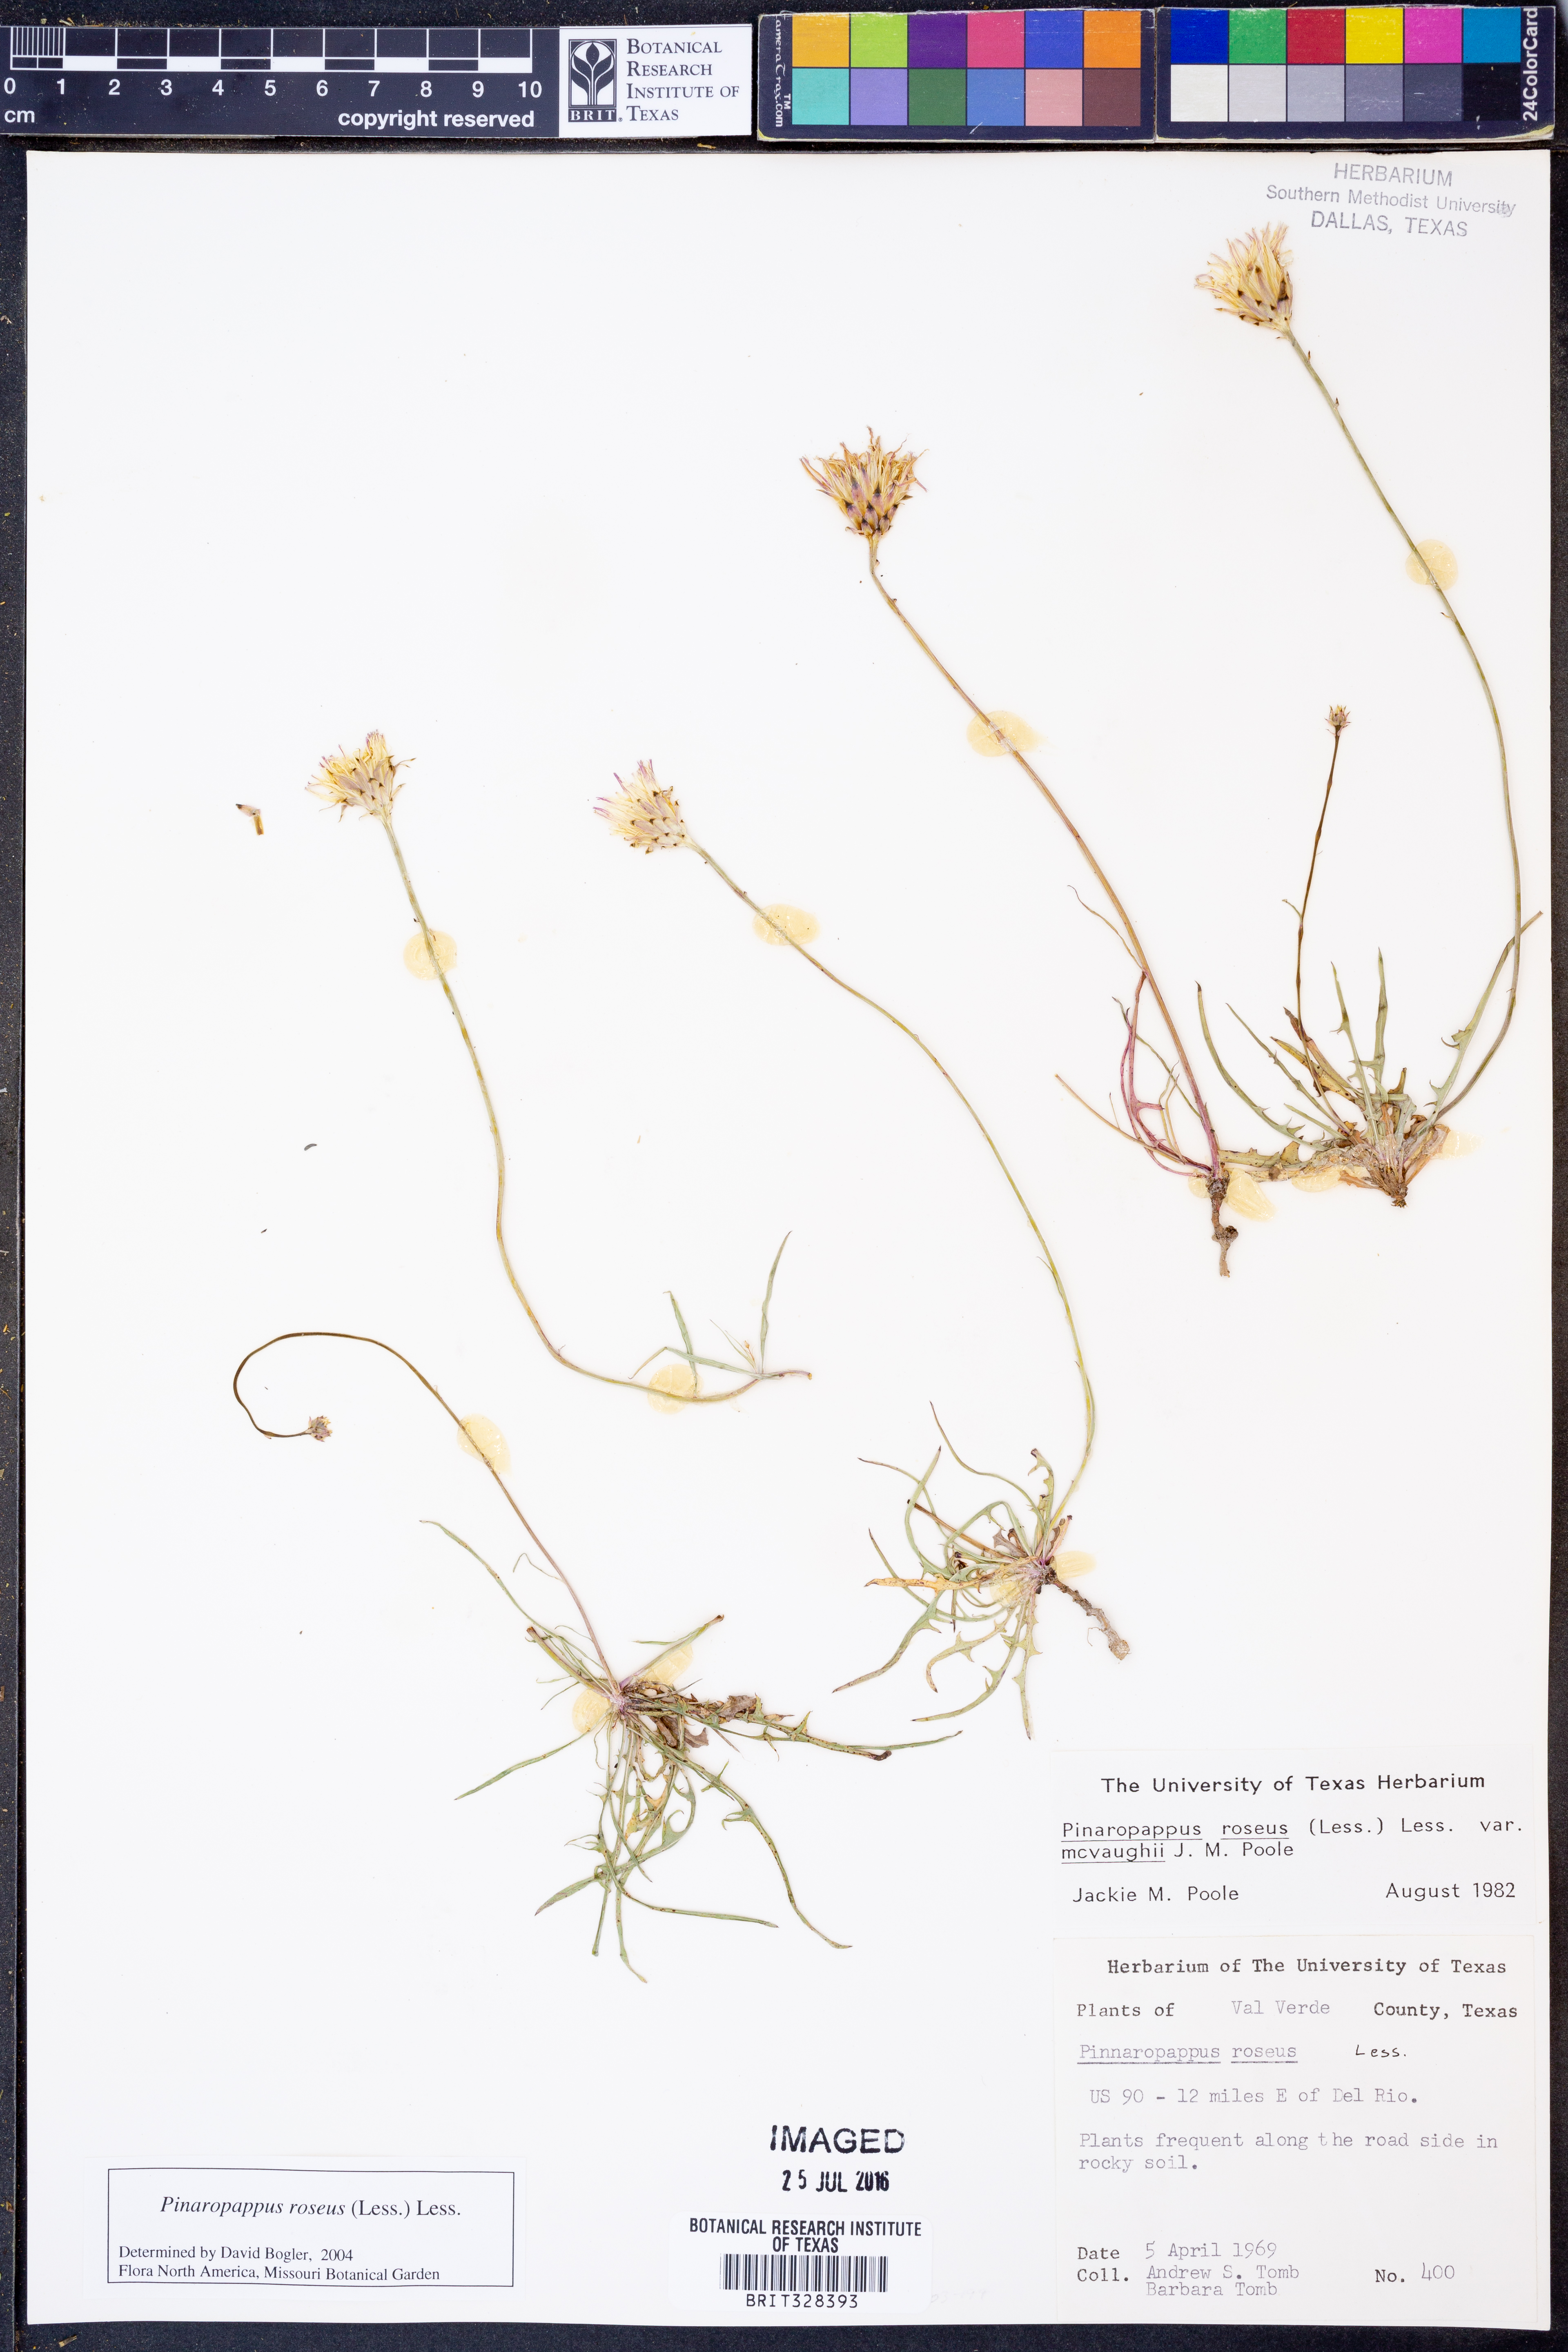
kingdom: Plantae
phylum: Tracheophyta
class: Magnoliopsida
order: Asterales
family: Asteraceae
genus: Pinaropappus
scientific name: Pinaropappus roseus
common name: Rock-lettuce
